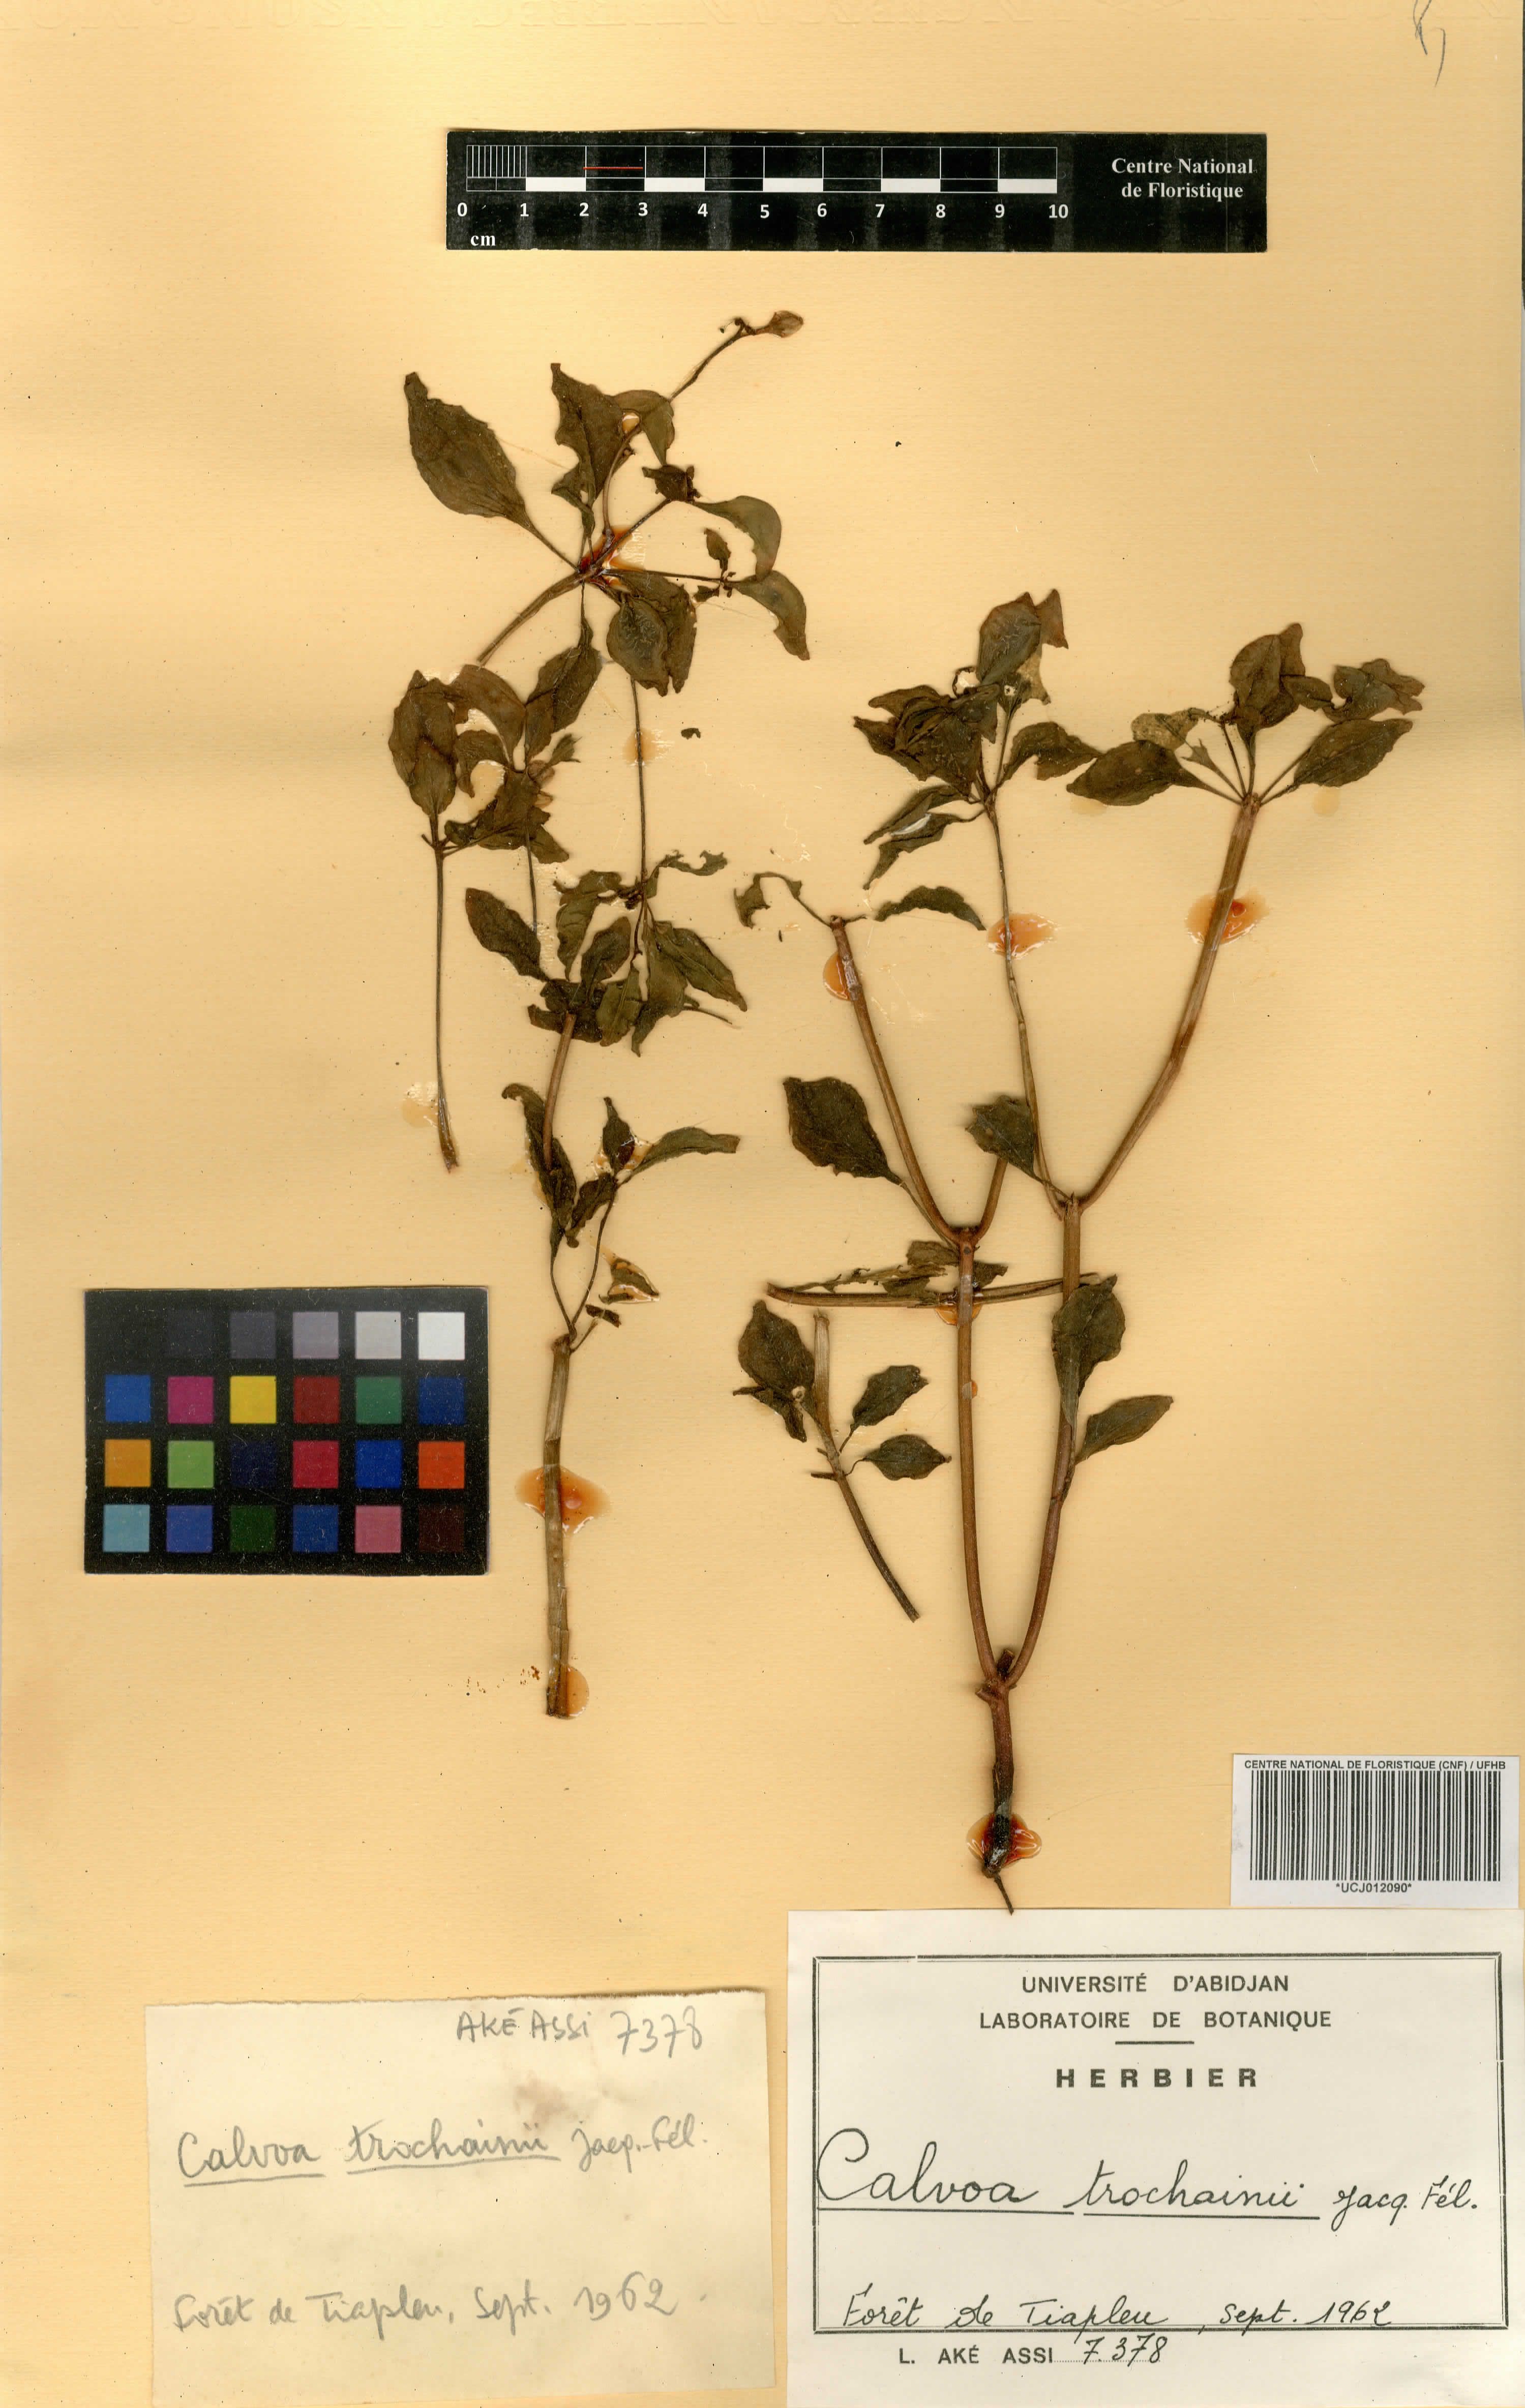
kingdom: Plantae
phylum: Tracheophyta
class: Magnoliopsida
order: Myrtales
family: Melastomataceae
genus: Calvoa
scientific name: Calvoa trochainii
